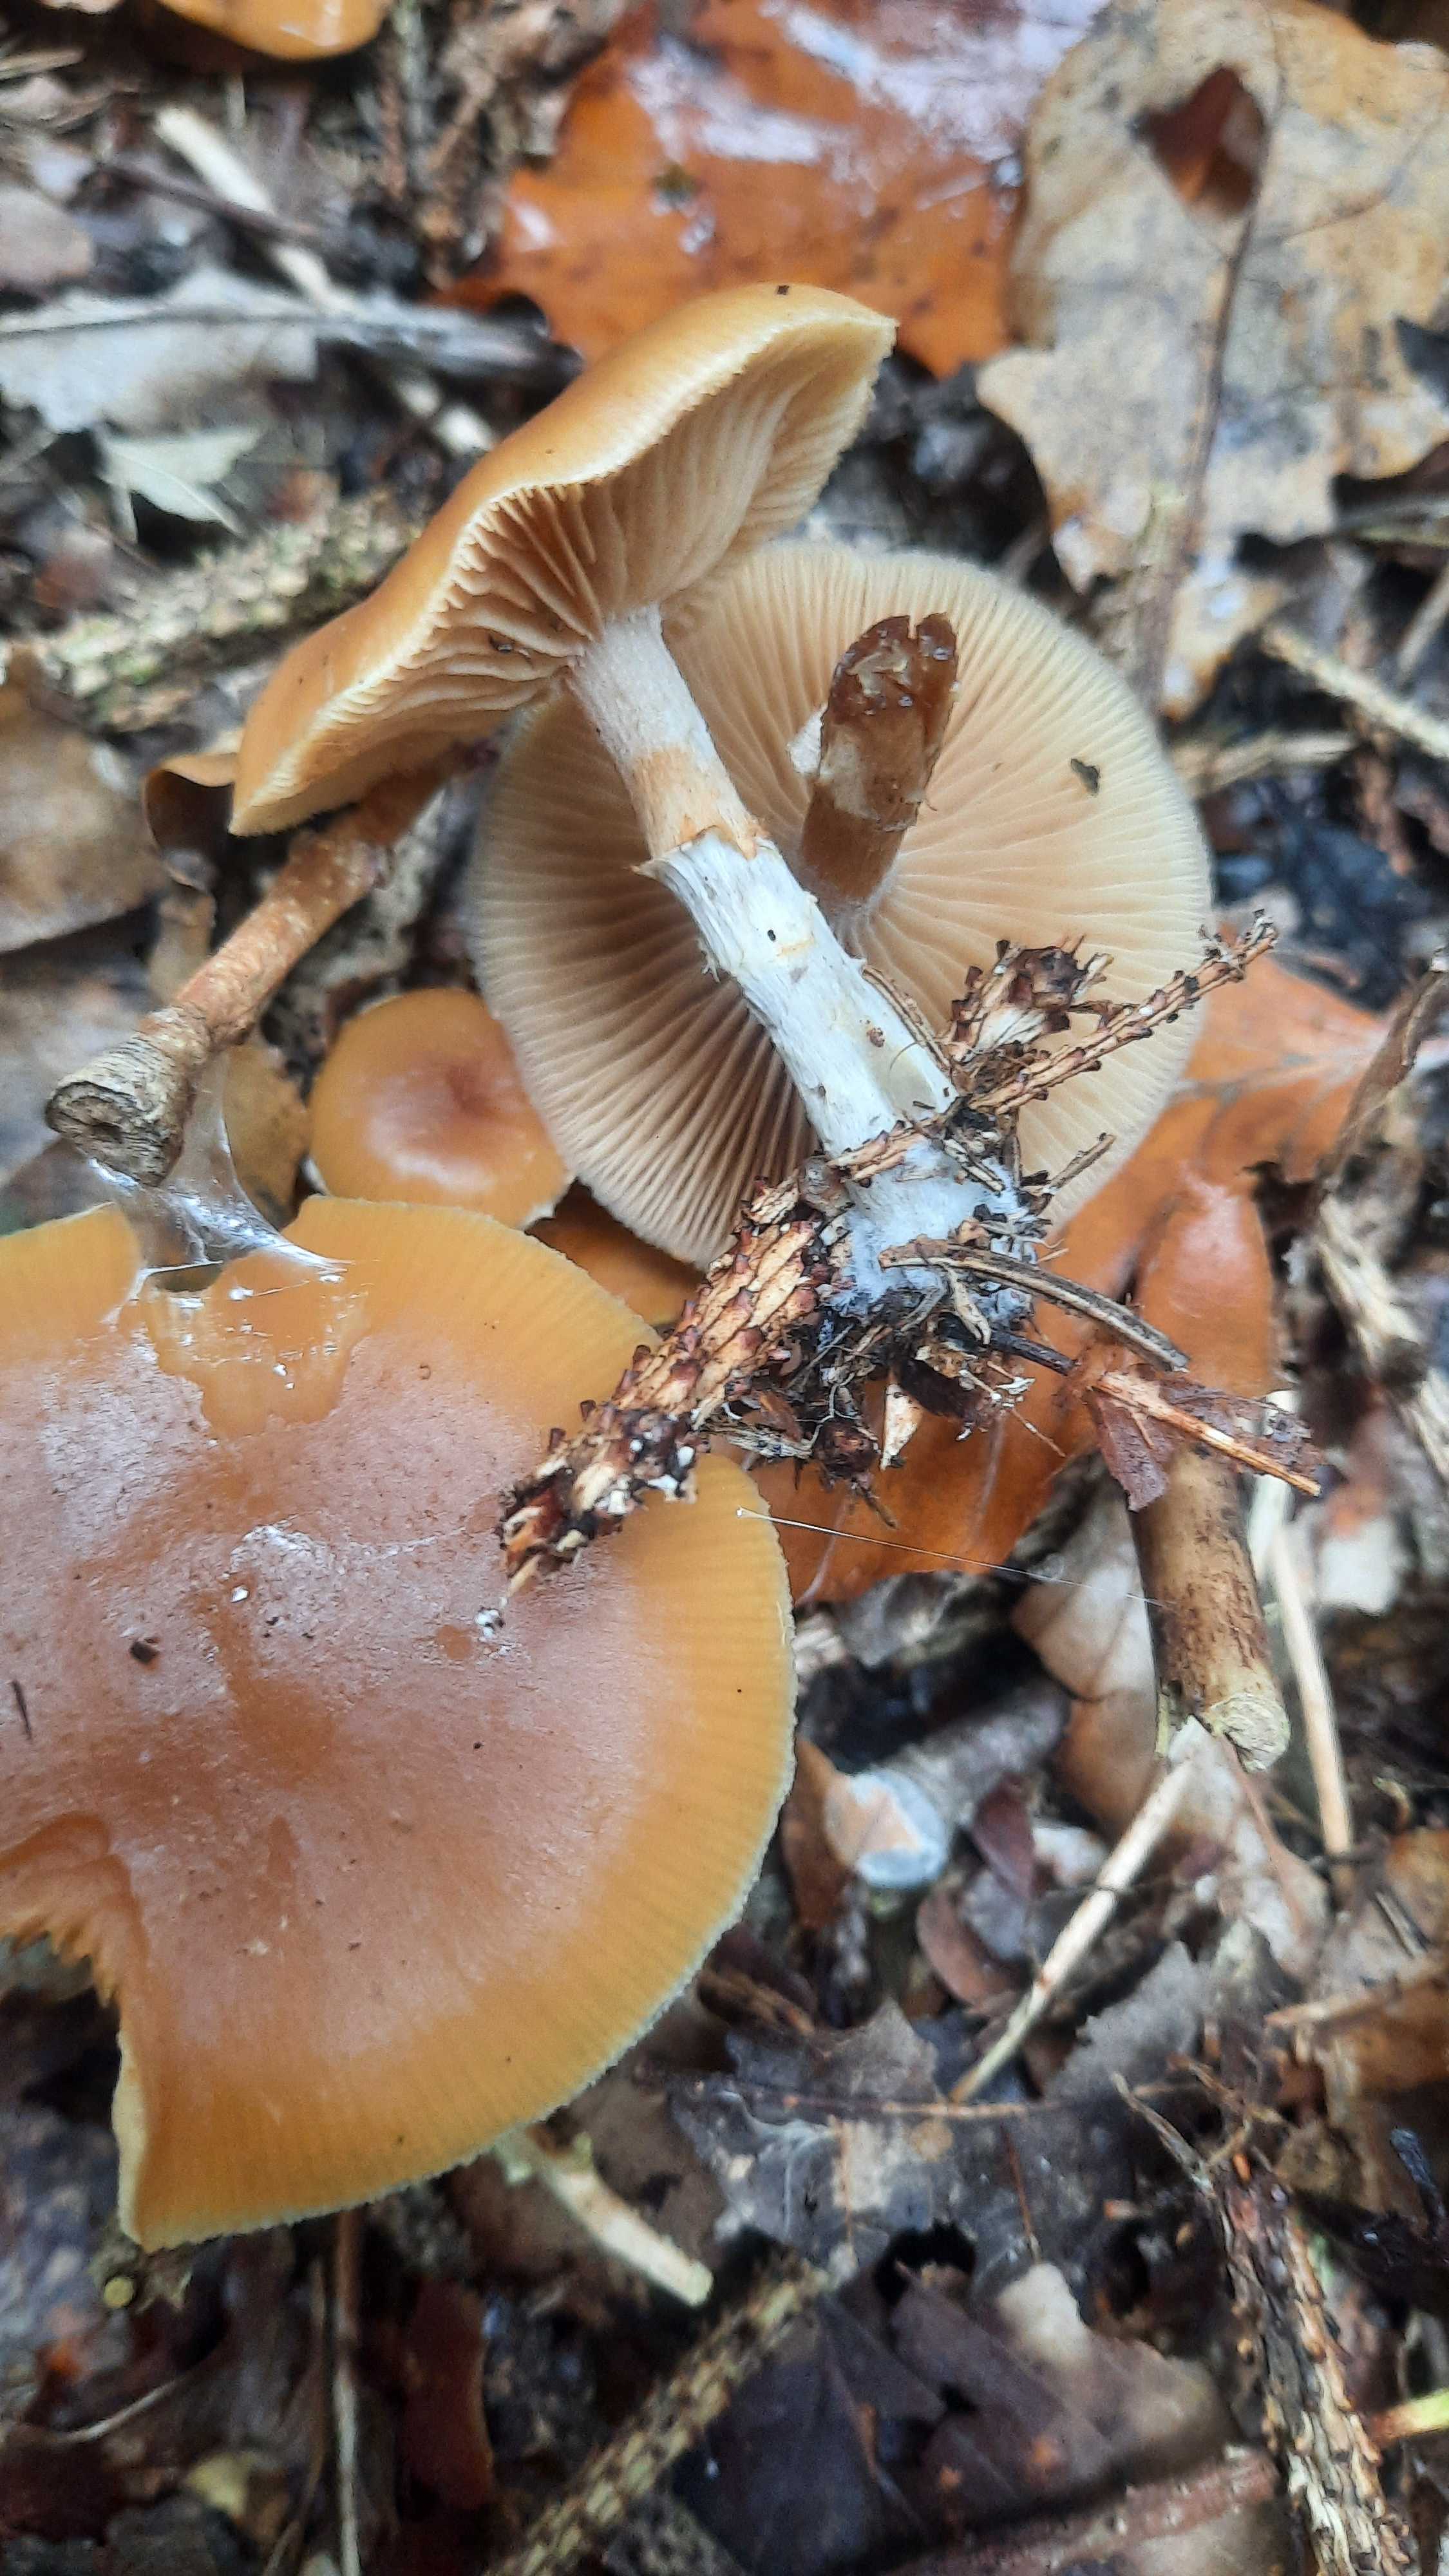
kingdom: Fungi
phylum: Basidiomycota
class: Agaricomycetes
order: Agaricales
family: Hymenogastraceae
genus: Galerina
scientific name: Galerina marginata
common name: randbæltet hjelmhat
